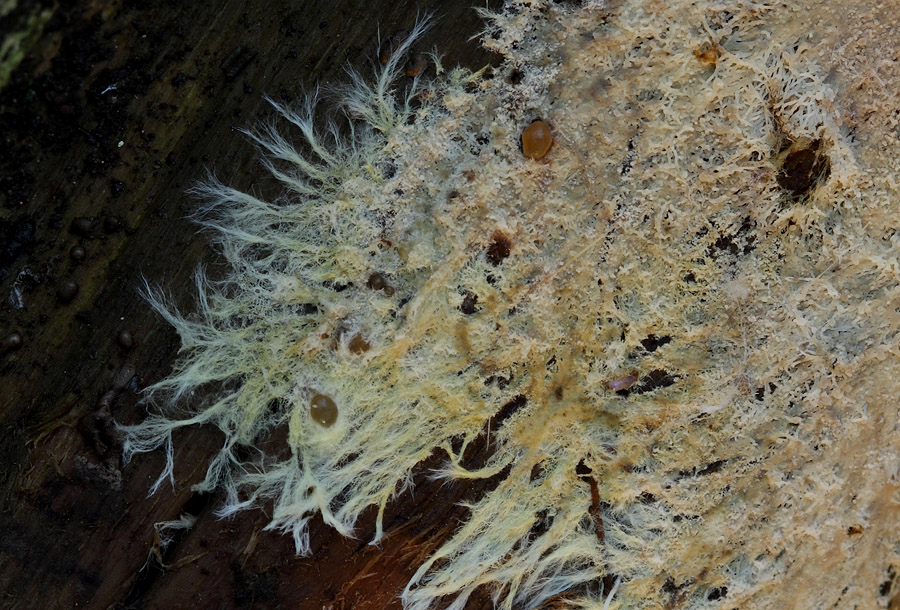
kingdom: Fungi
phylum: Basidiomycota
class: Agaricomycetes
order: Russulales
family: Xenasmataceae
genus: Xenasmatella
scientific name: Xenasmatella vaga
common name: svovl-strenghinde
